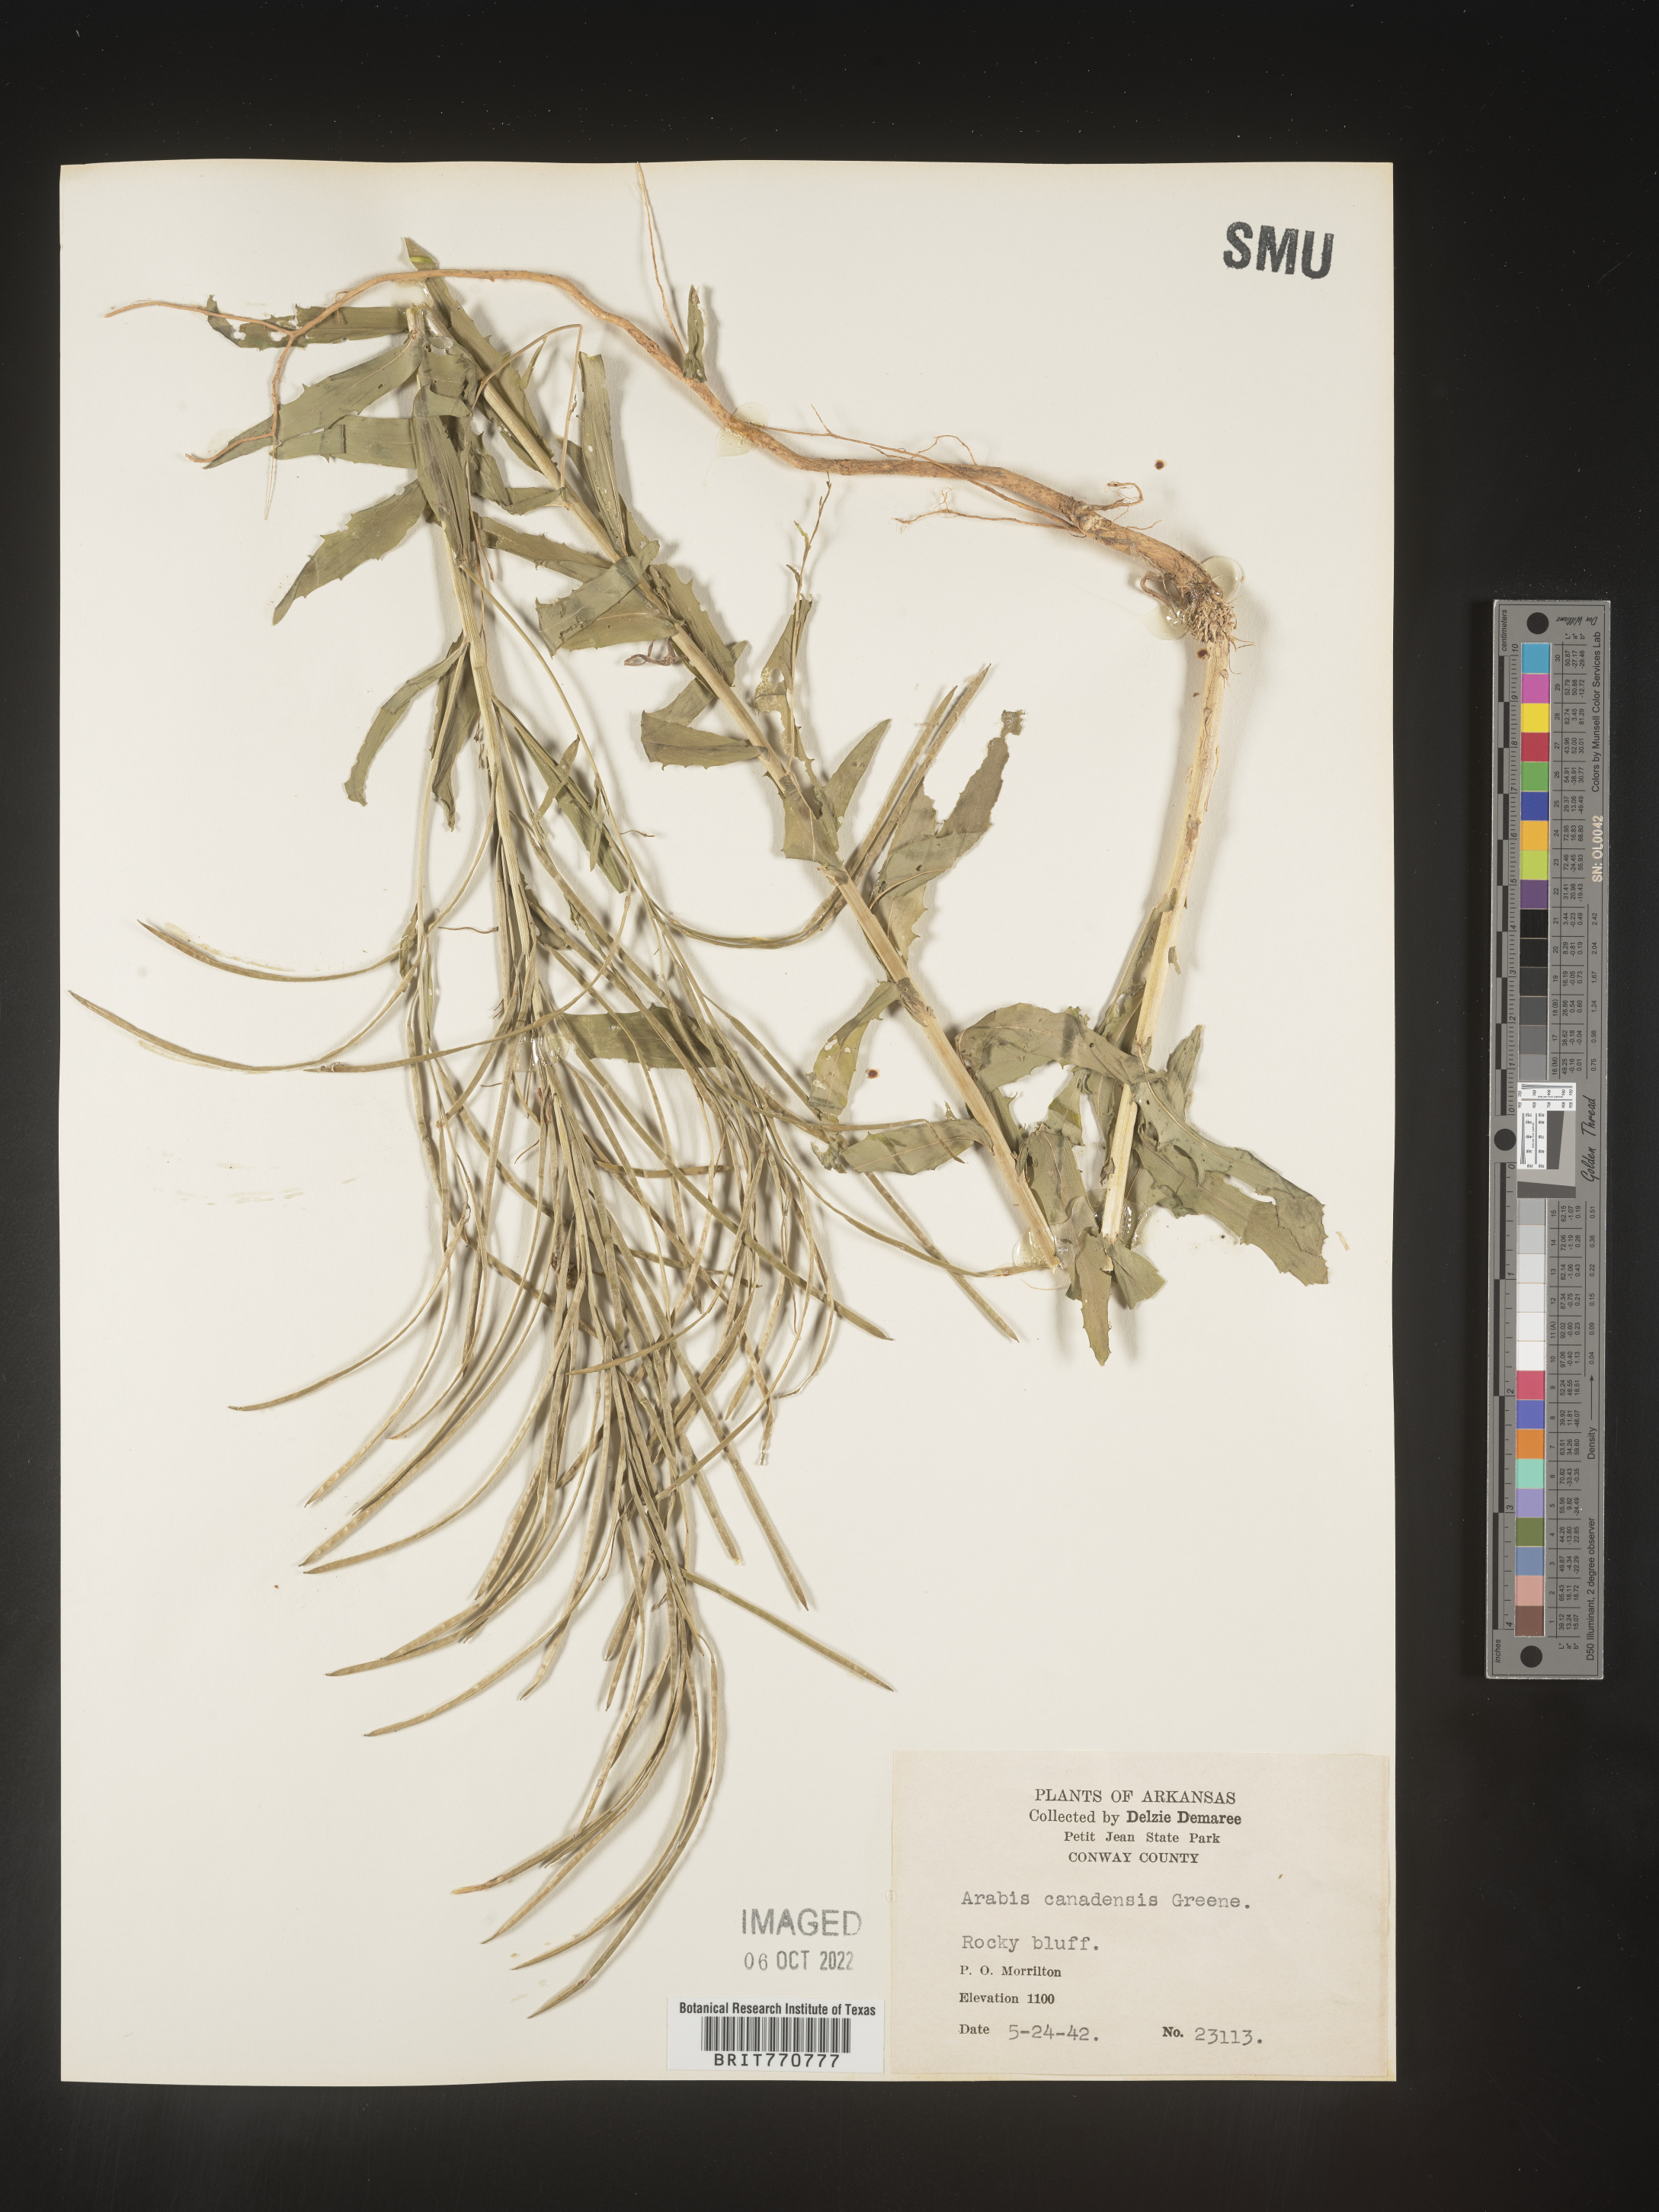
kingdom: Plantae
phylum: Tracheophyta
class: Magnoliopsida
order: Brassicales
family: Brassicaceae
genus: Borodinia
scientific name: Borodinia canadensis
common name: Sicklepod
